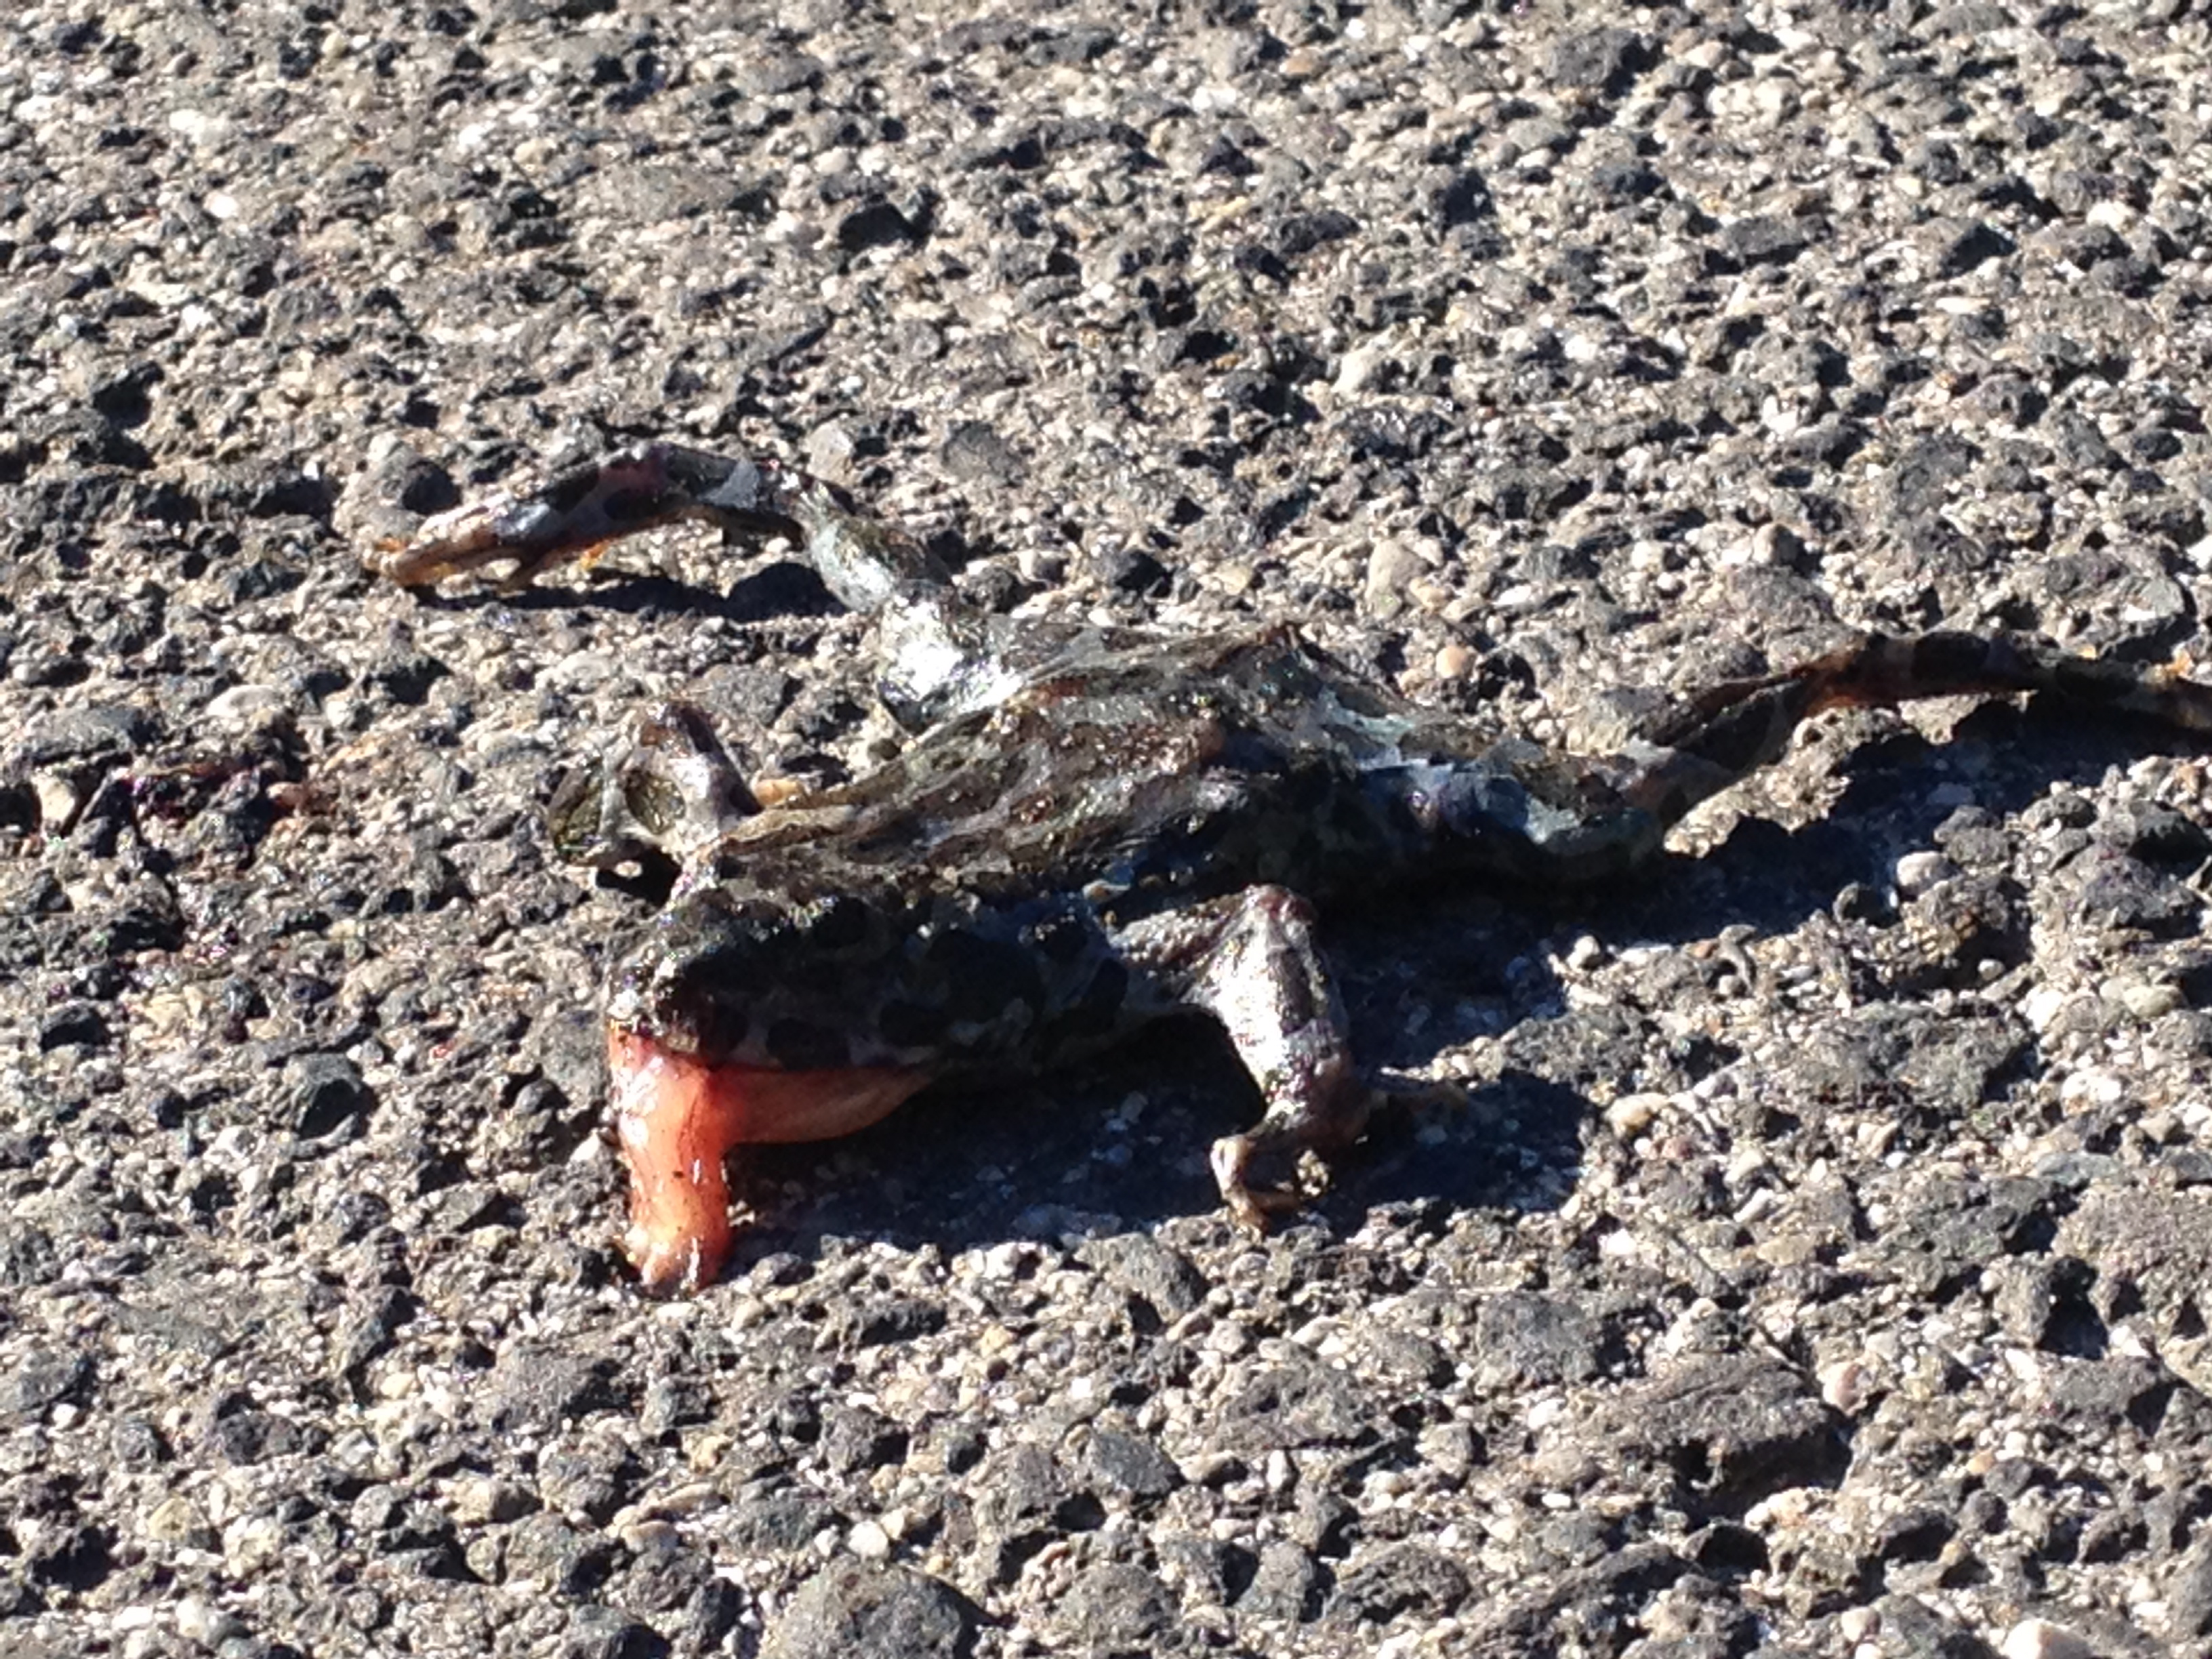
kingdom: Animalia
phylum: Chordata
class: Amphibia
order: Anura
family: Bufonidae
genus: Bufotes
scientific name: Bufotes viridis
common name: European green toad
